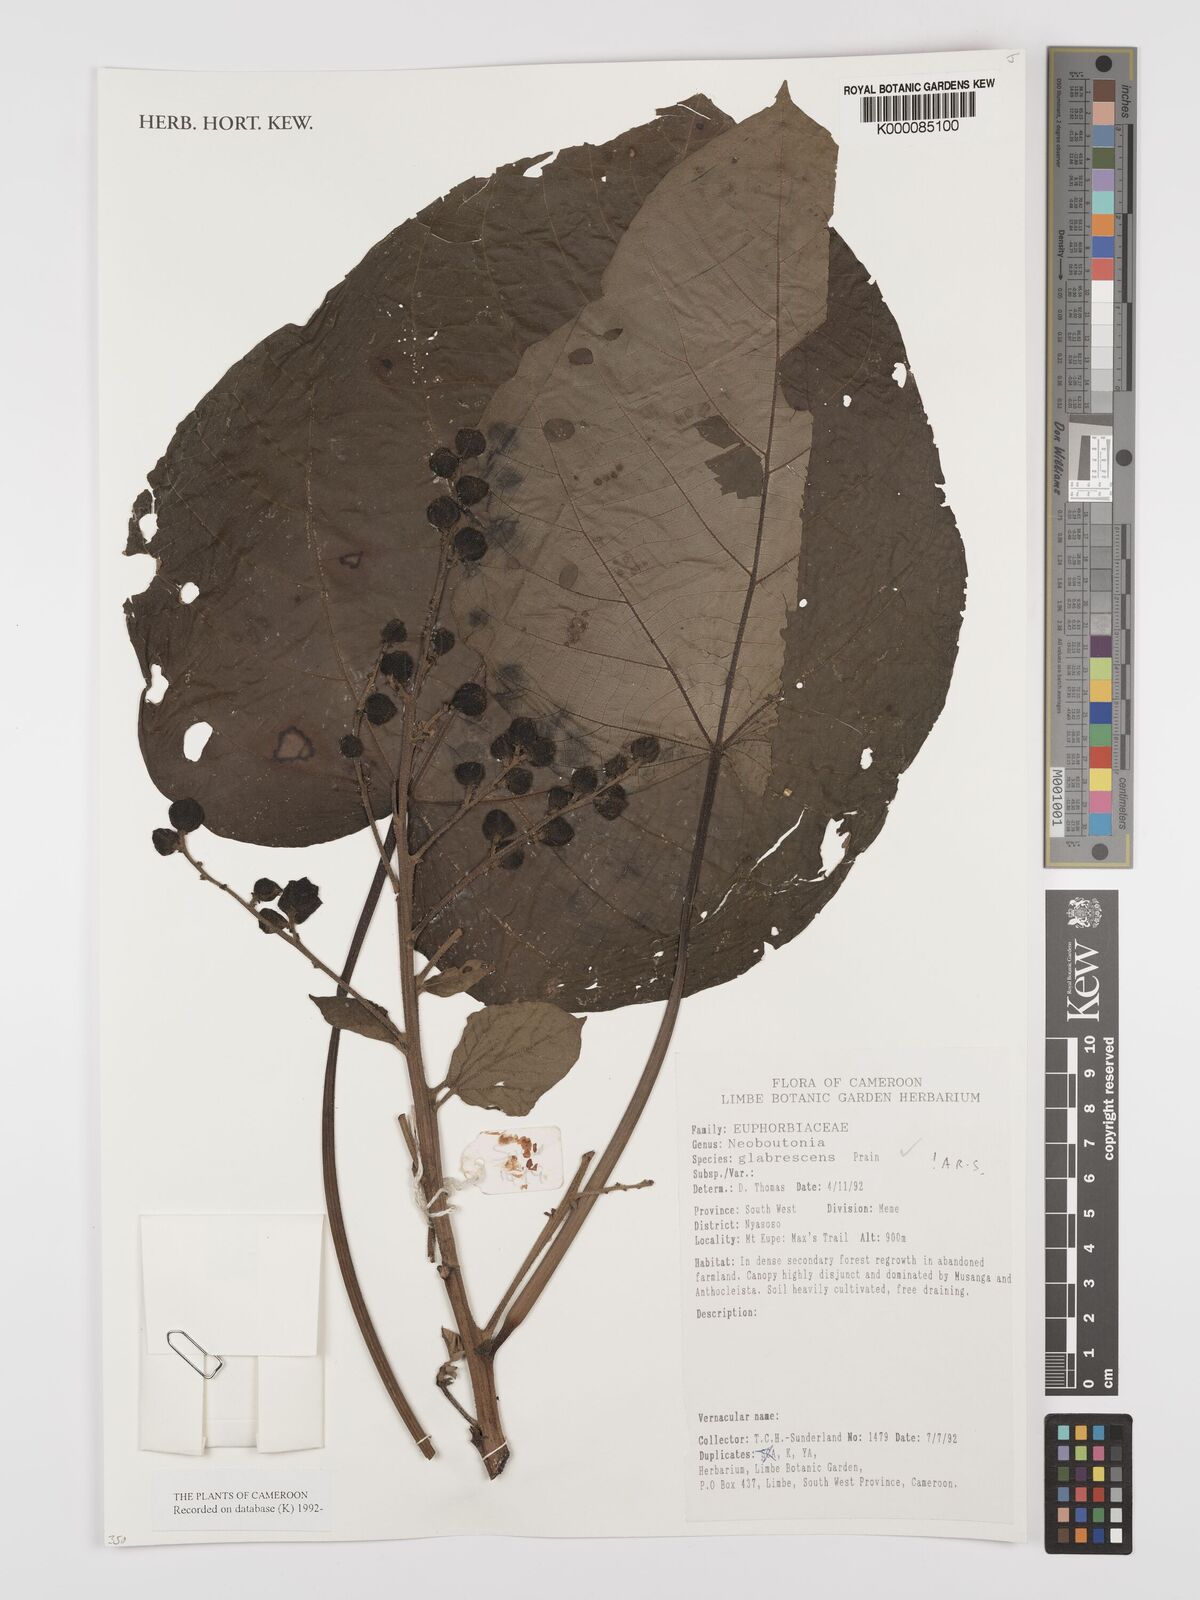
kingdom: Plantae
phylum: Tracheophyta
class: Magnoliopsida
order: Malpighiales
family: Euphorbiaceae
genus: Neoboutonia
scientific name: Neoboutonia mannii
